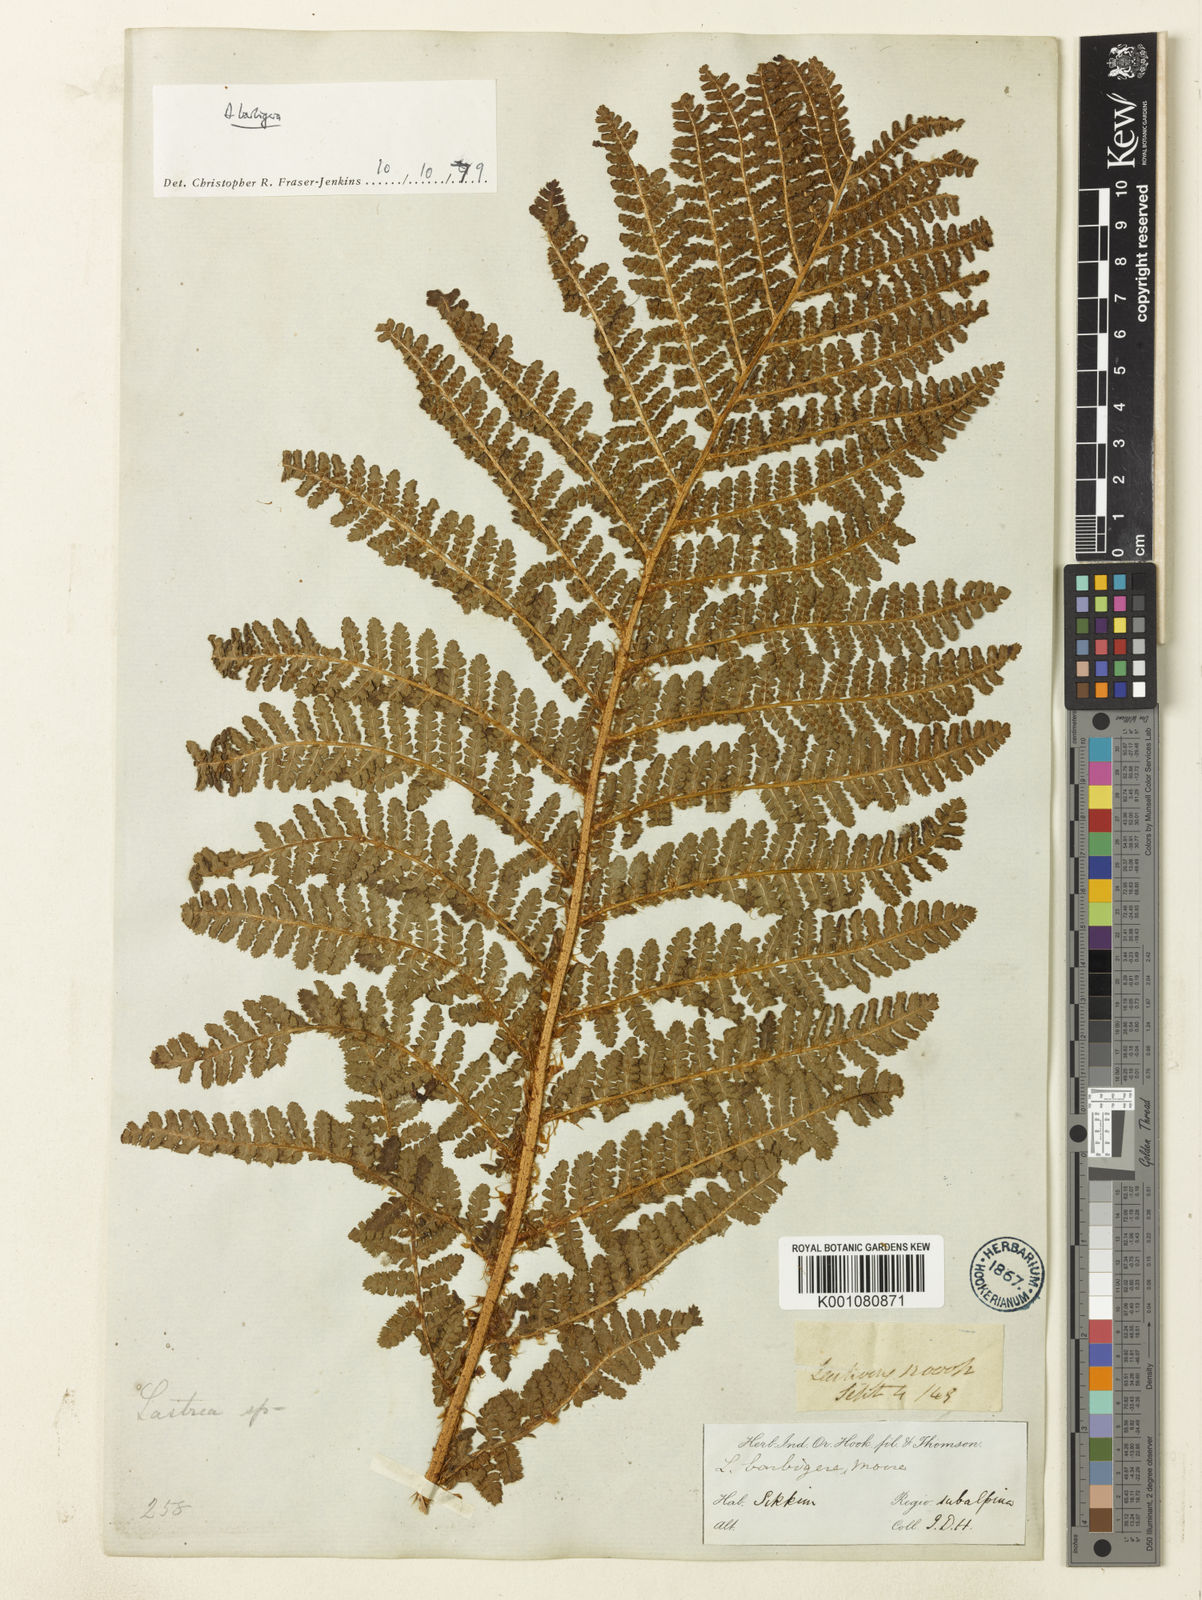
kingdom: Plantae
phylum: Tracheophyta
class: Polypodiopsida
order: Polypodiales
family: Dryopteridaceae
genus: Dryopteris
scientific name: Dryopteris barbigera
